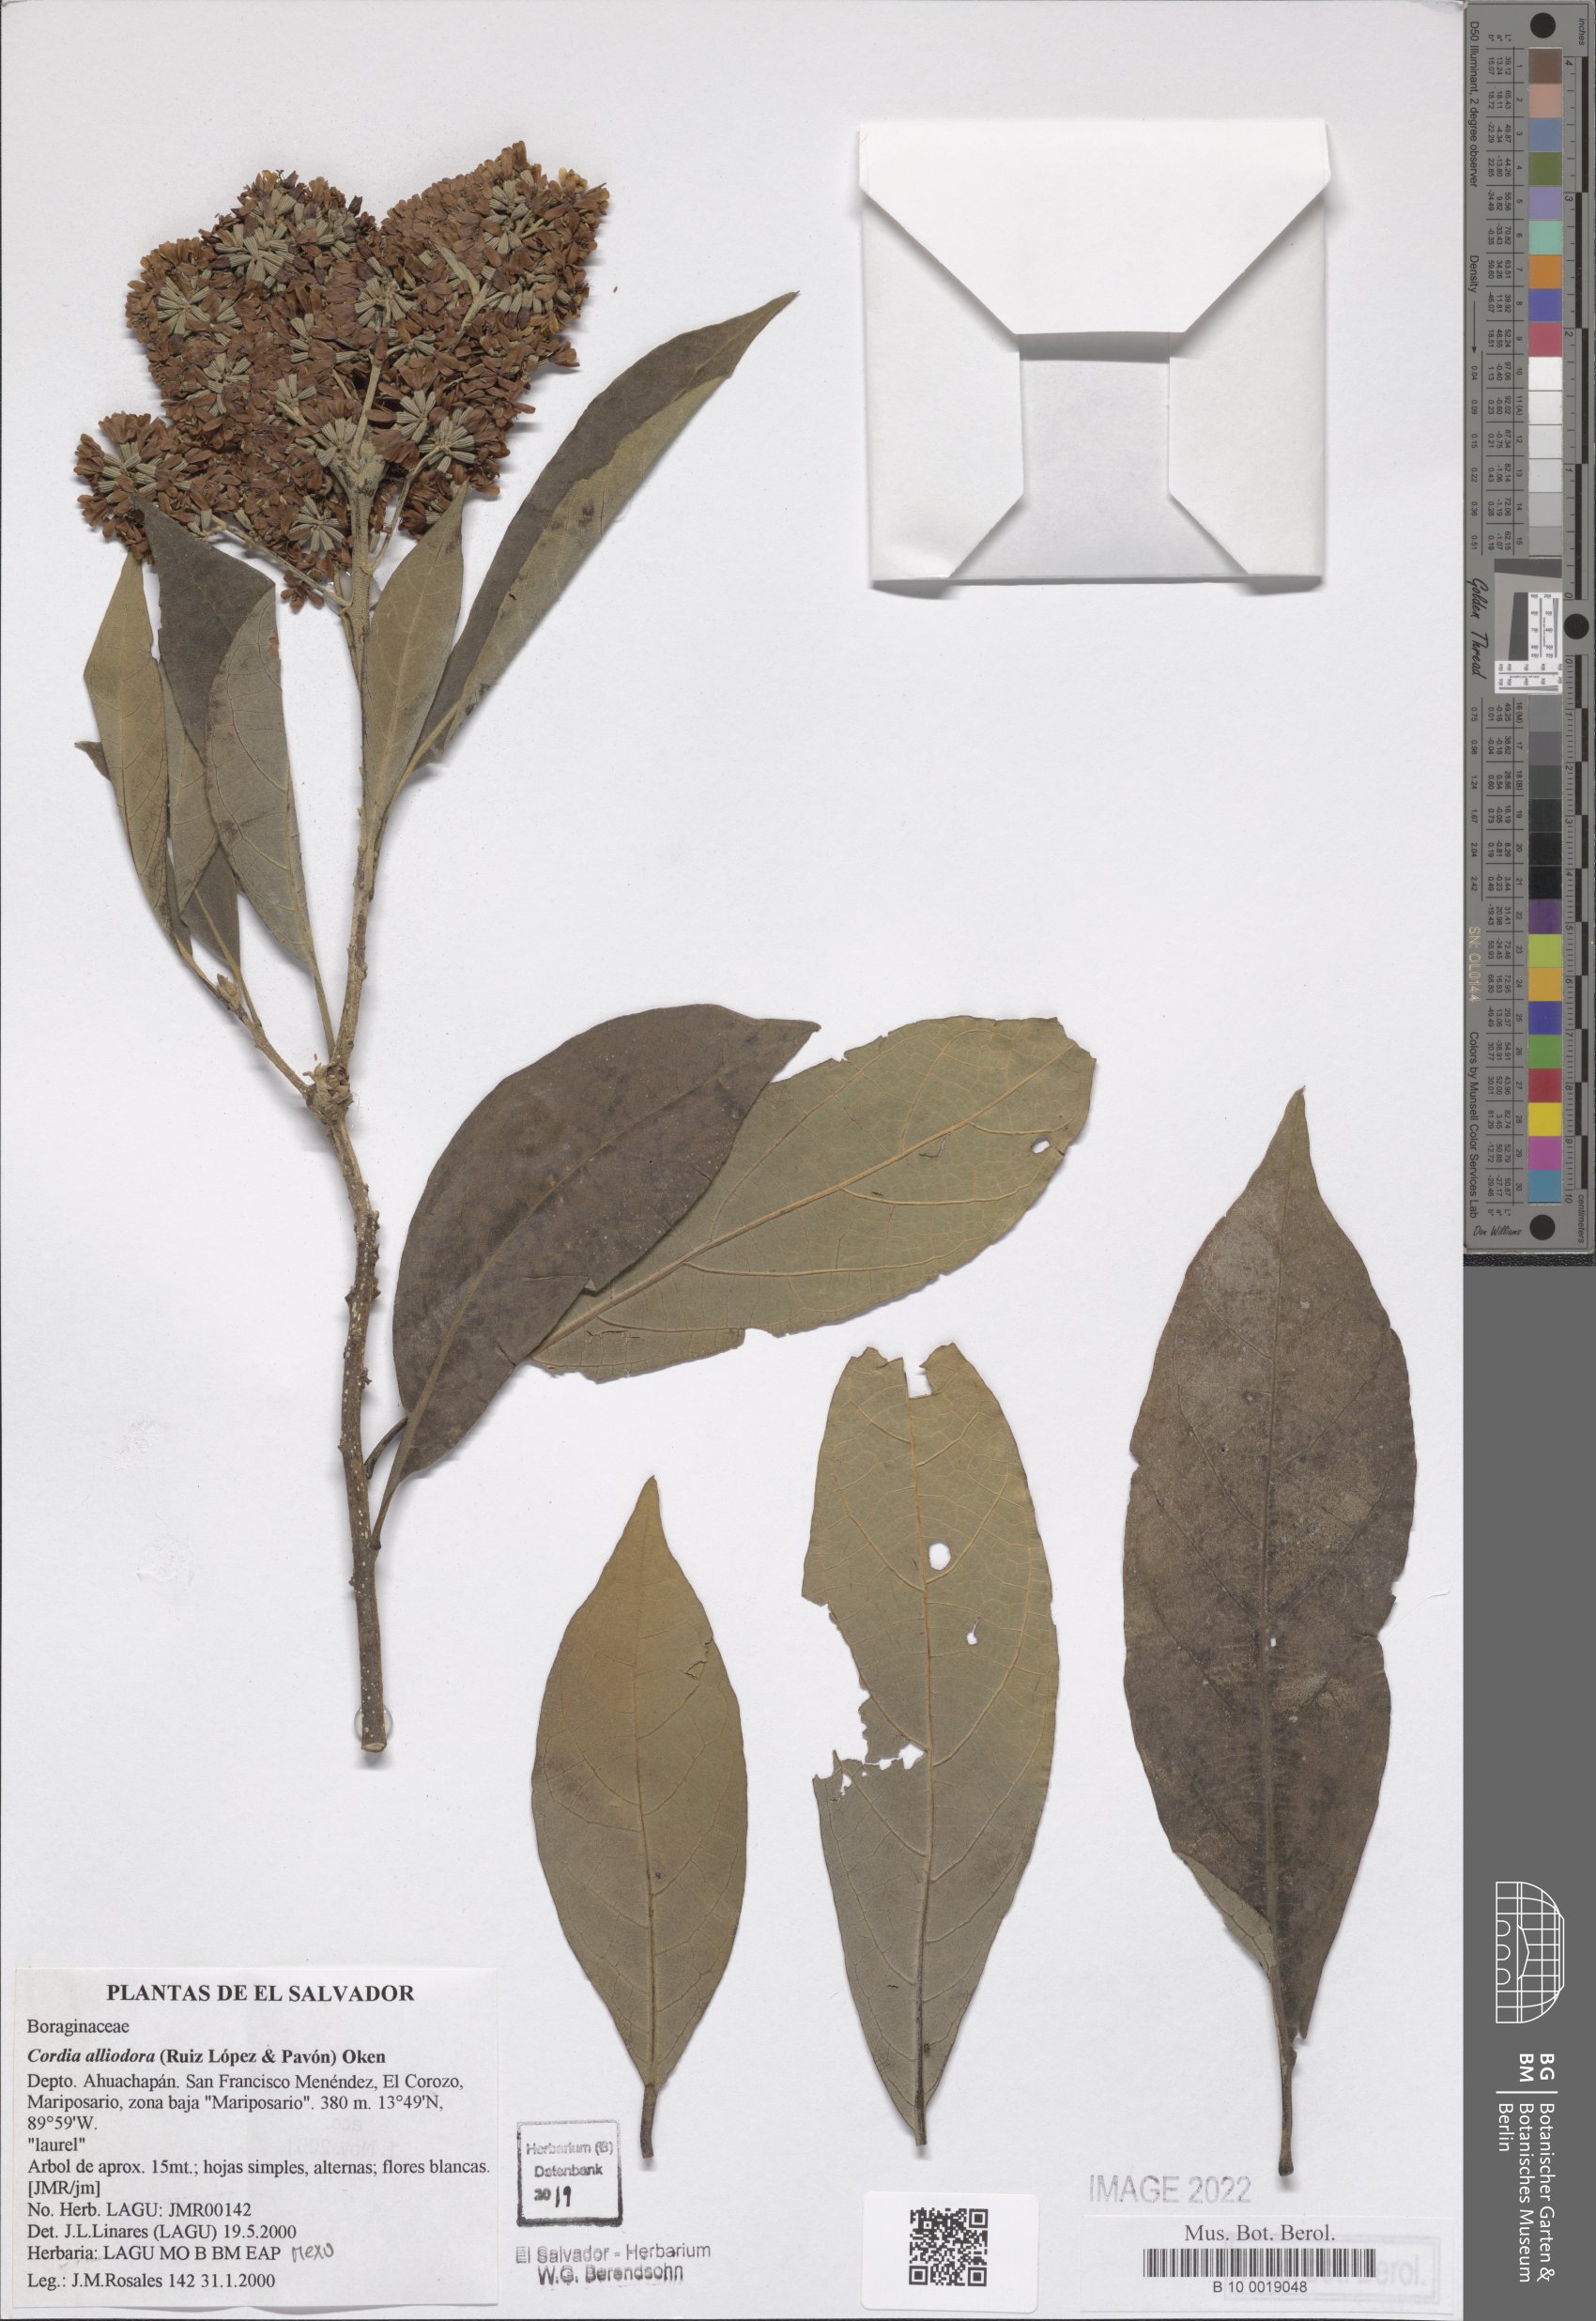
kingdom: Plantae
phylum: Tracheophyta
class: Magnoliopsida
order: Boraginales
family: Cordiaceae
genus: Cordia
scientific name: Cordia alliodora
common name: Spanish elm
